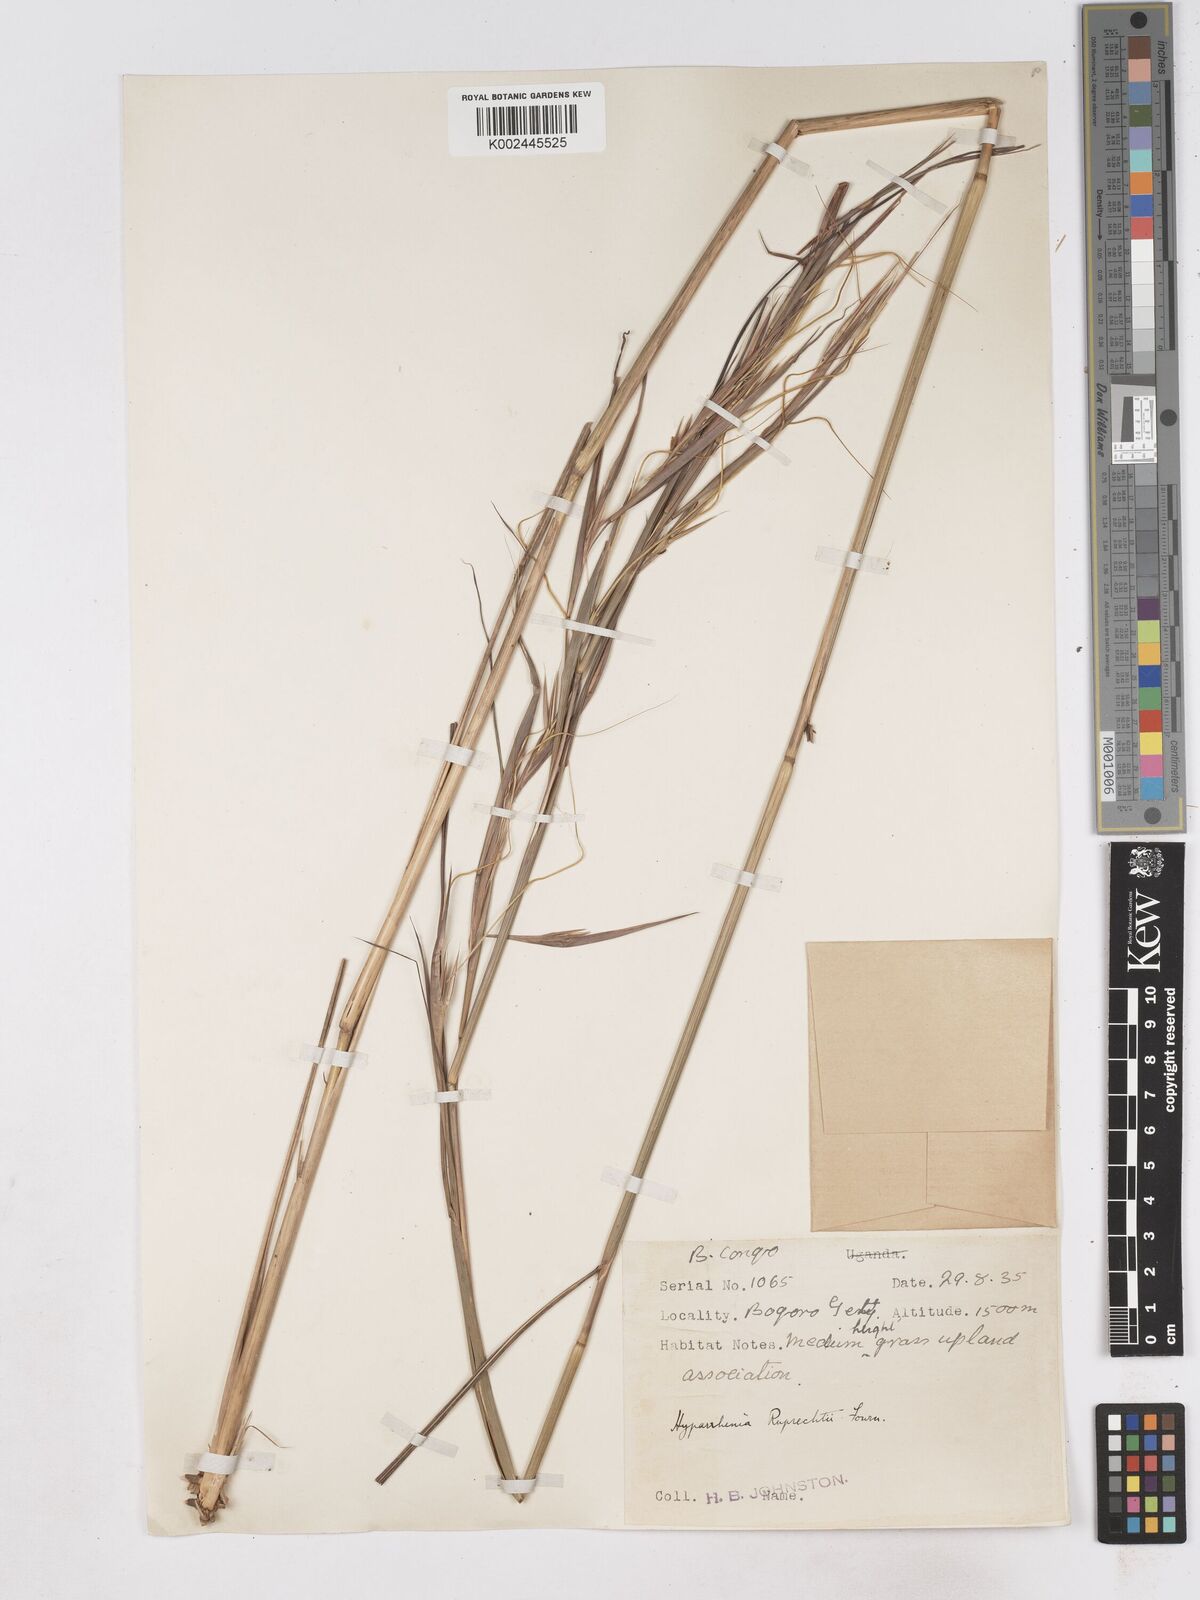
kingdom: Plantae
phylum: Tracheophyta
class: Liliopsida
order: Poales
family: Poaceae
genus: Hyperthelia
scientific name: Hyperthelia dissoluta
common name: Yellow thatching grass
